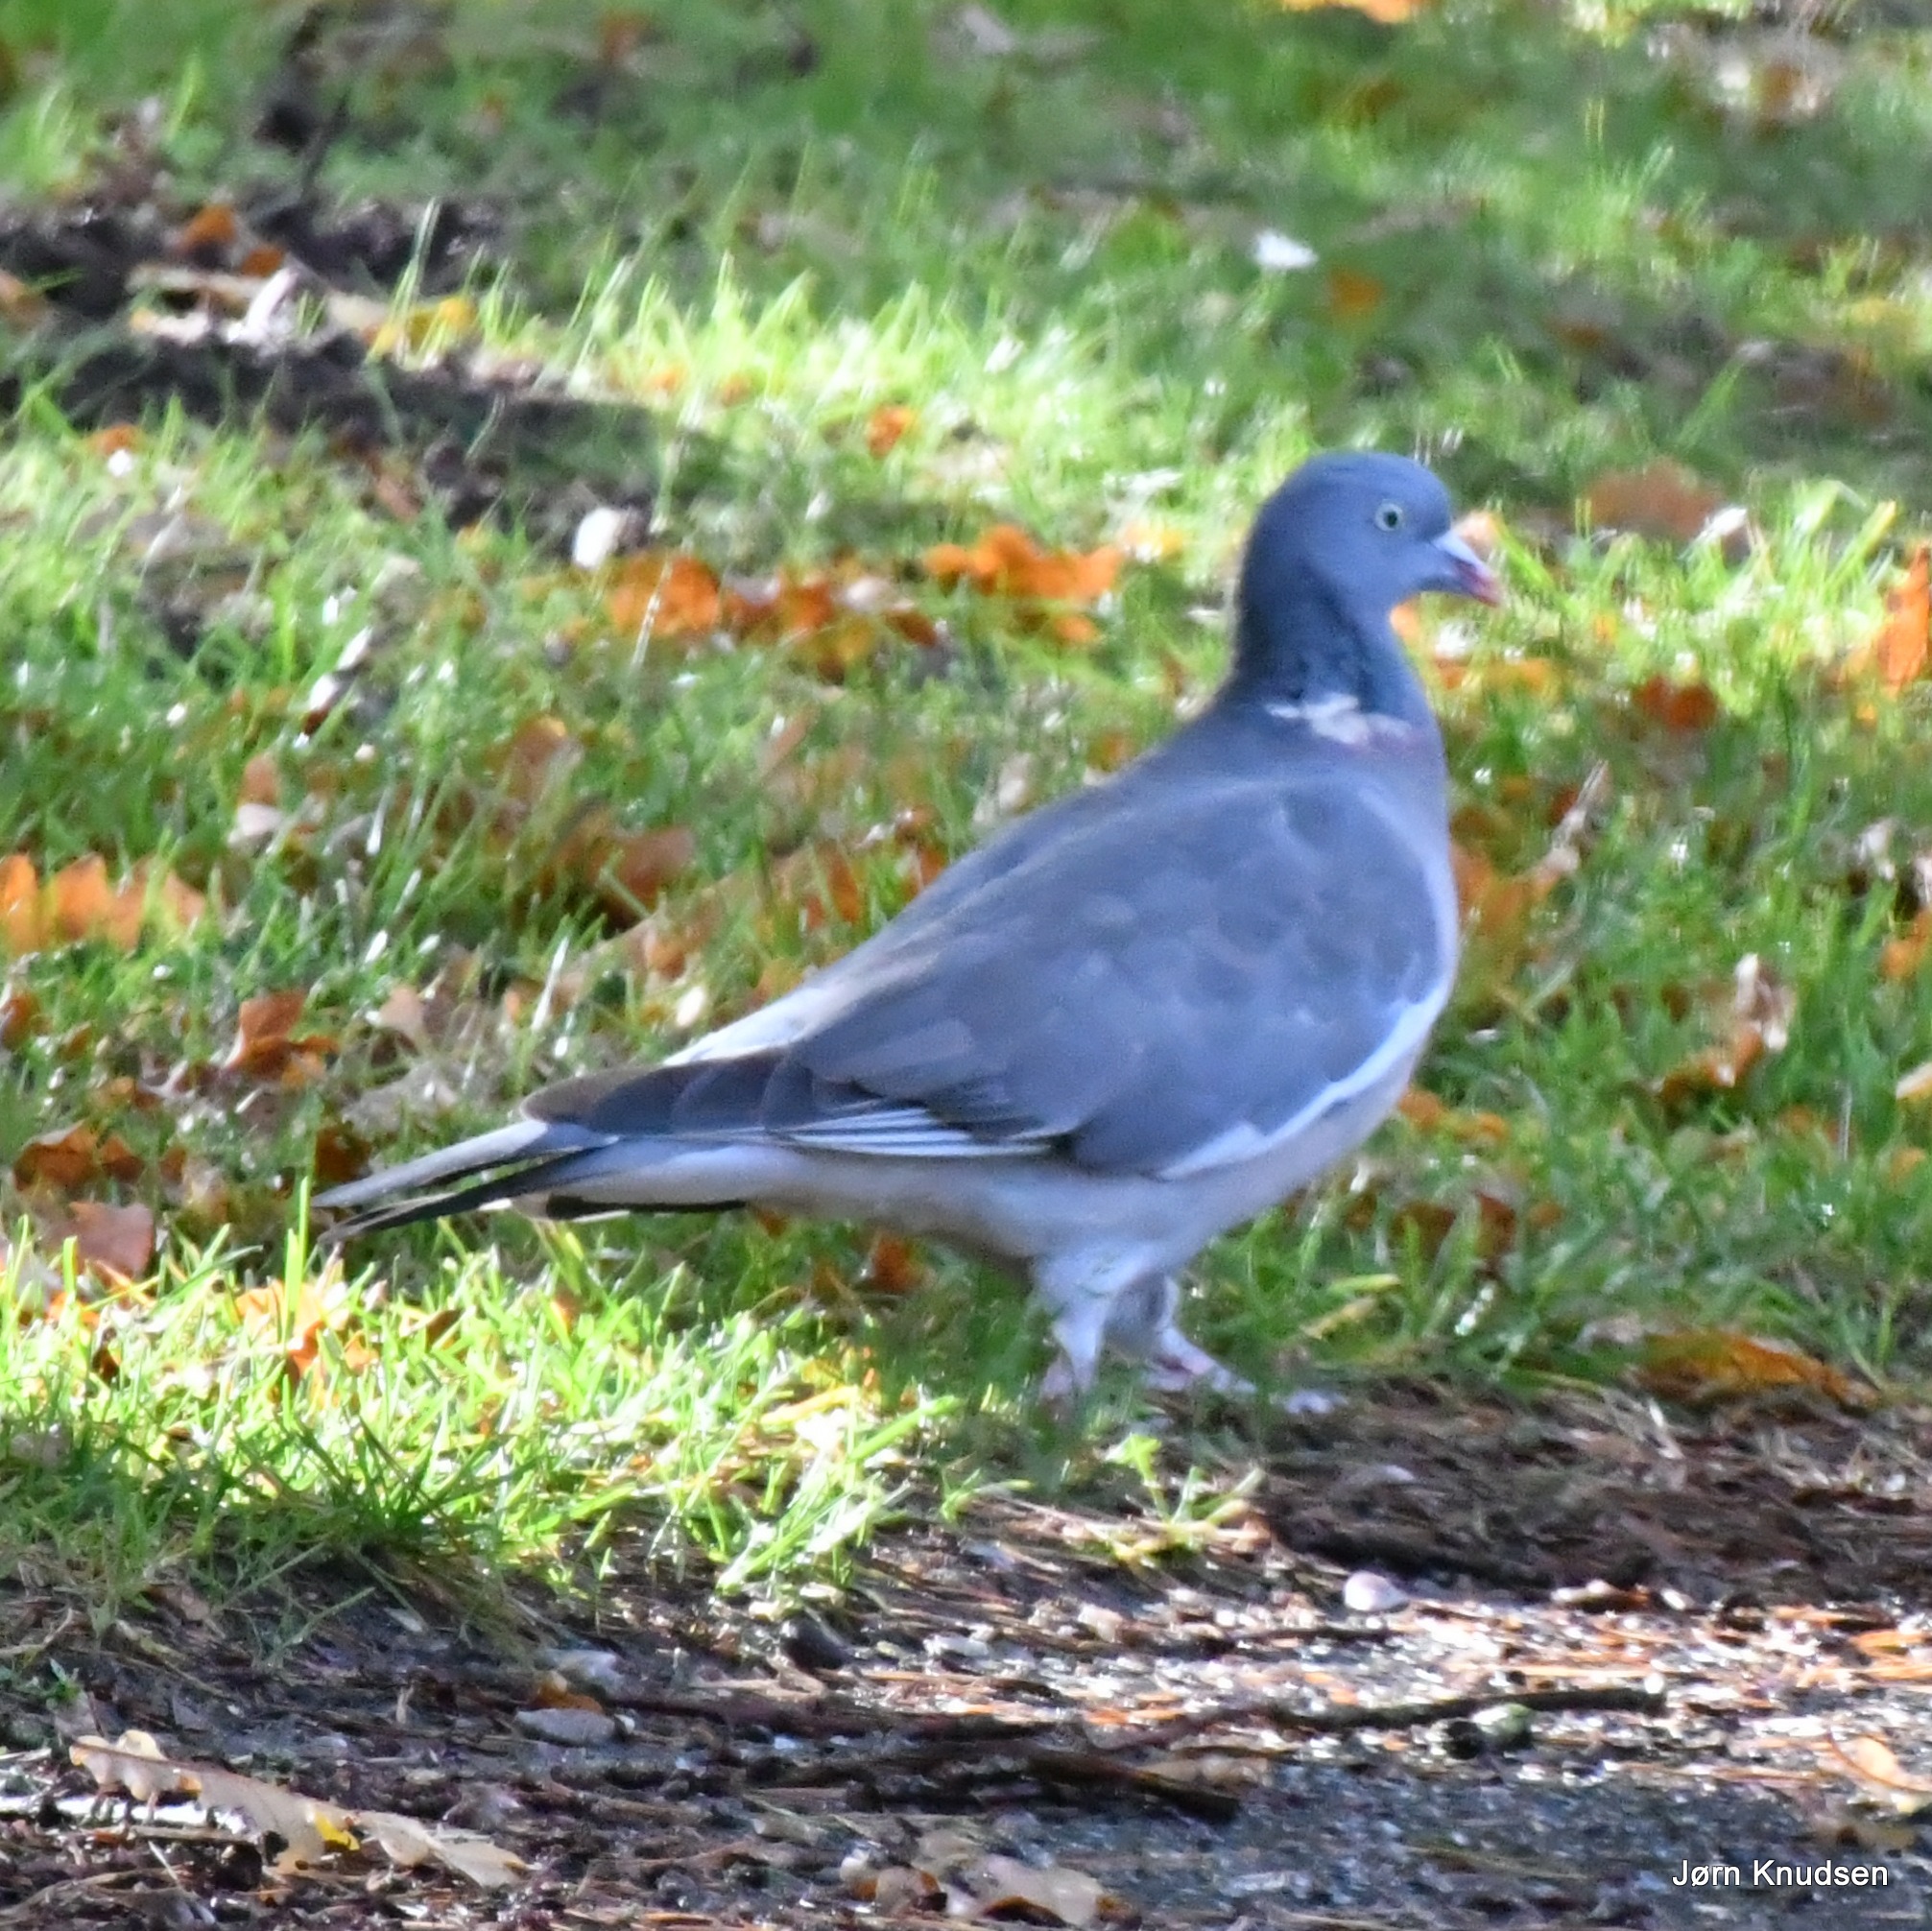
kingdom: Animalia
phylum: Chordata
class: Aves
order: Columbiformes
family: Columbidae
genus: Columba
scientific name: Columba palumbus
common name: Ringdue
